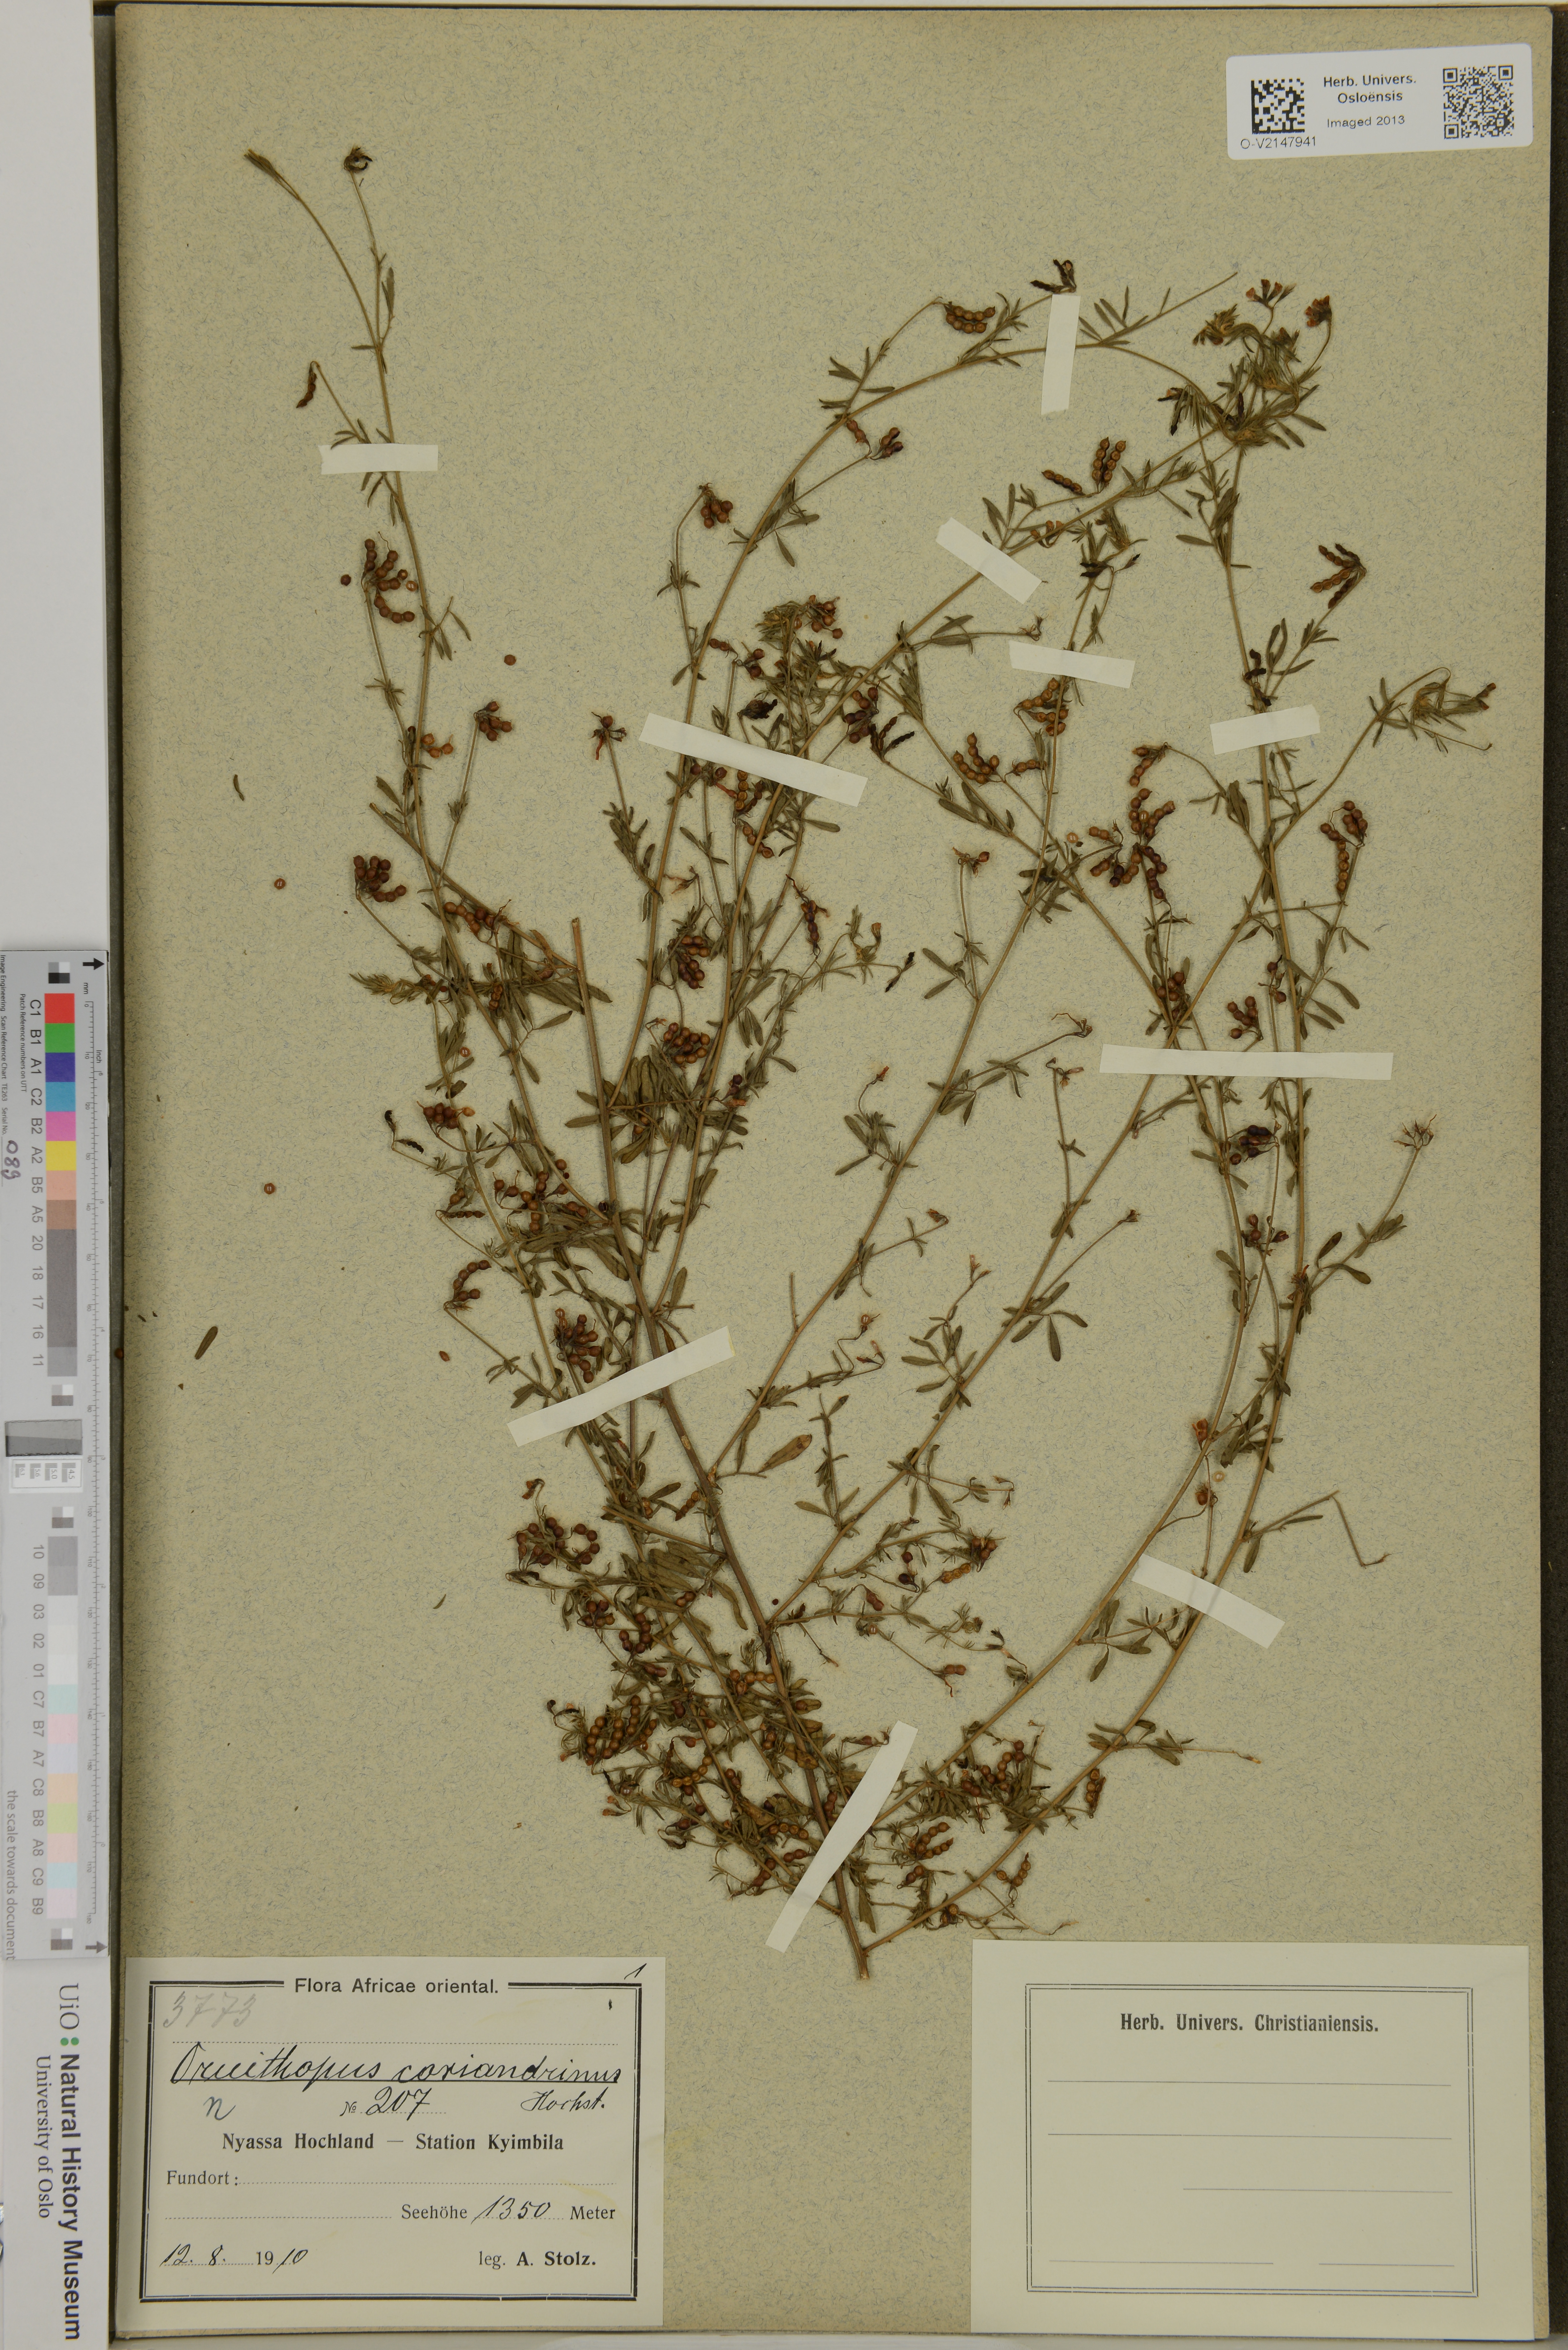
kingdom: Plantae
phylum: Tracheophyta
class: Magnoliopsida
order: Fabales
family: Fabaceae
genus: Ornithopus
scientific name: Ornithopus coriandrinus
